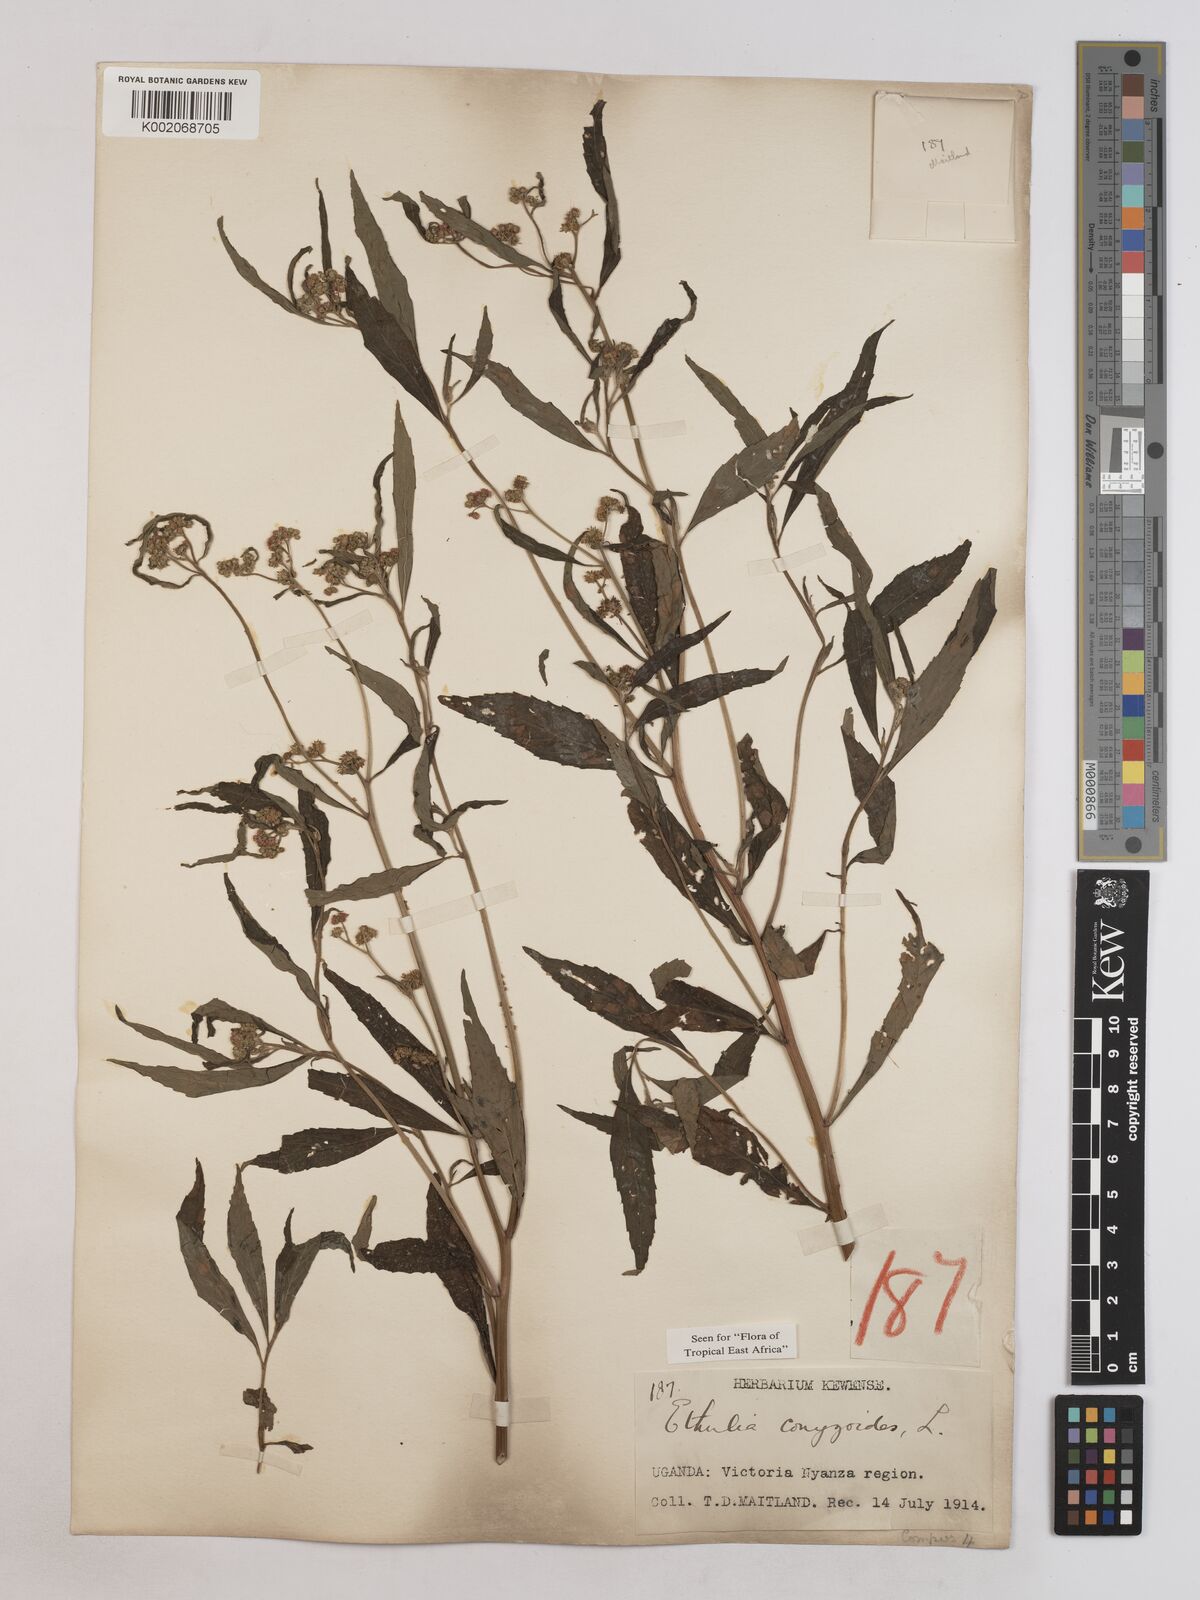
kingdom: Plantae
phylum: Tracheophyta
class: Magnoliopsida
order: Asterales
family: Asteraceae
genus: Ethulia
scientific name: Ethulia conyzoides
